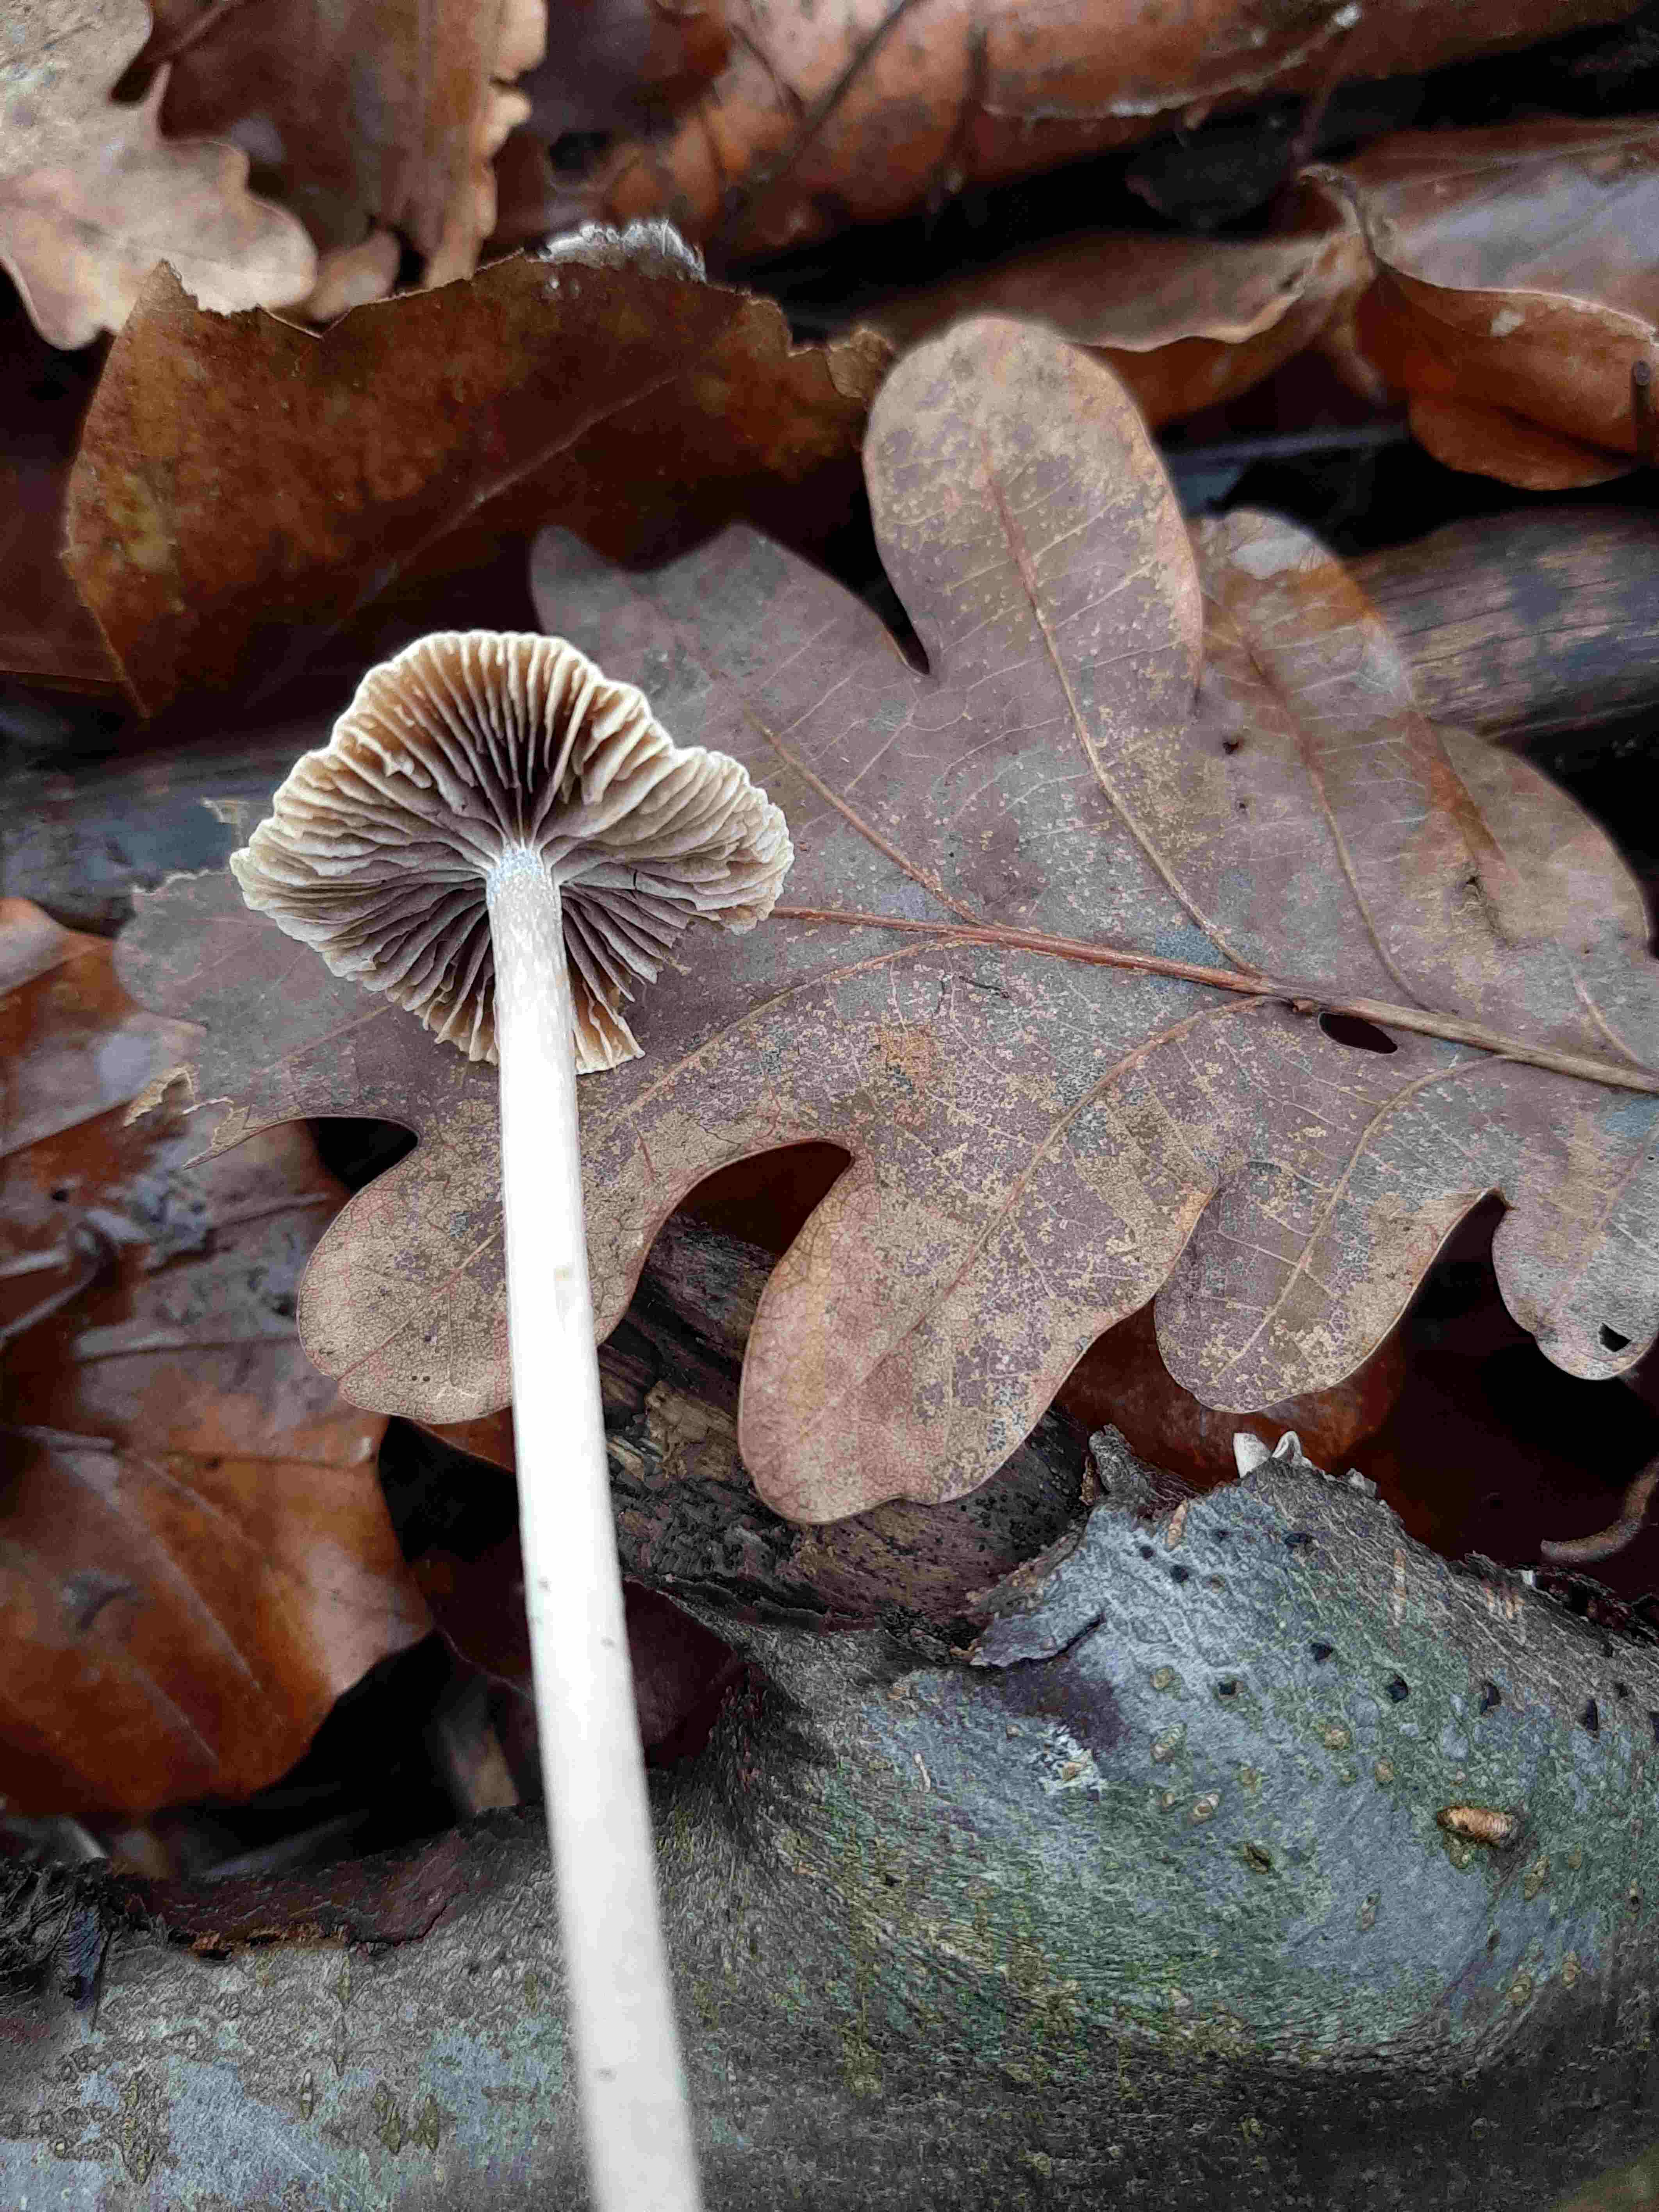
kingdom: Fungi
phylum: Basidiomycota
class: Agaricomycetes
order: Agaricales
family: Psathyrellaceae
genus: Psathyrella
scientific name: Psathyrella
